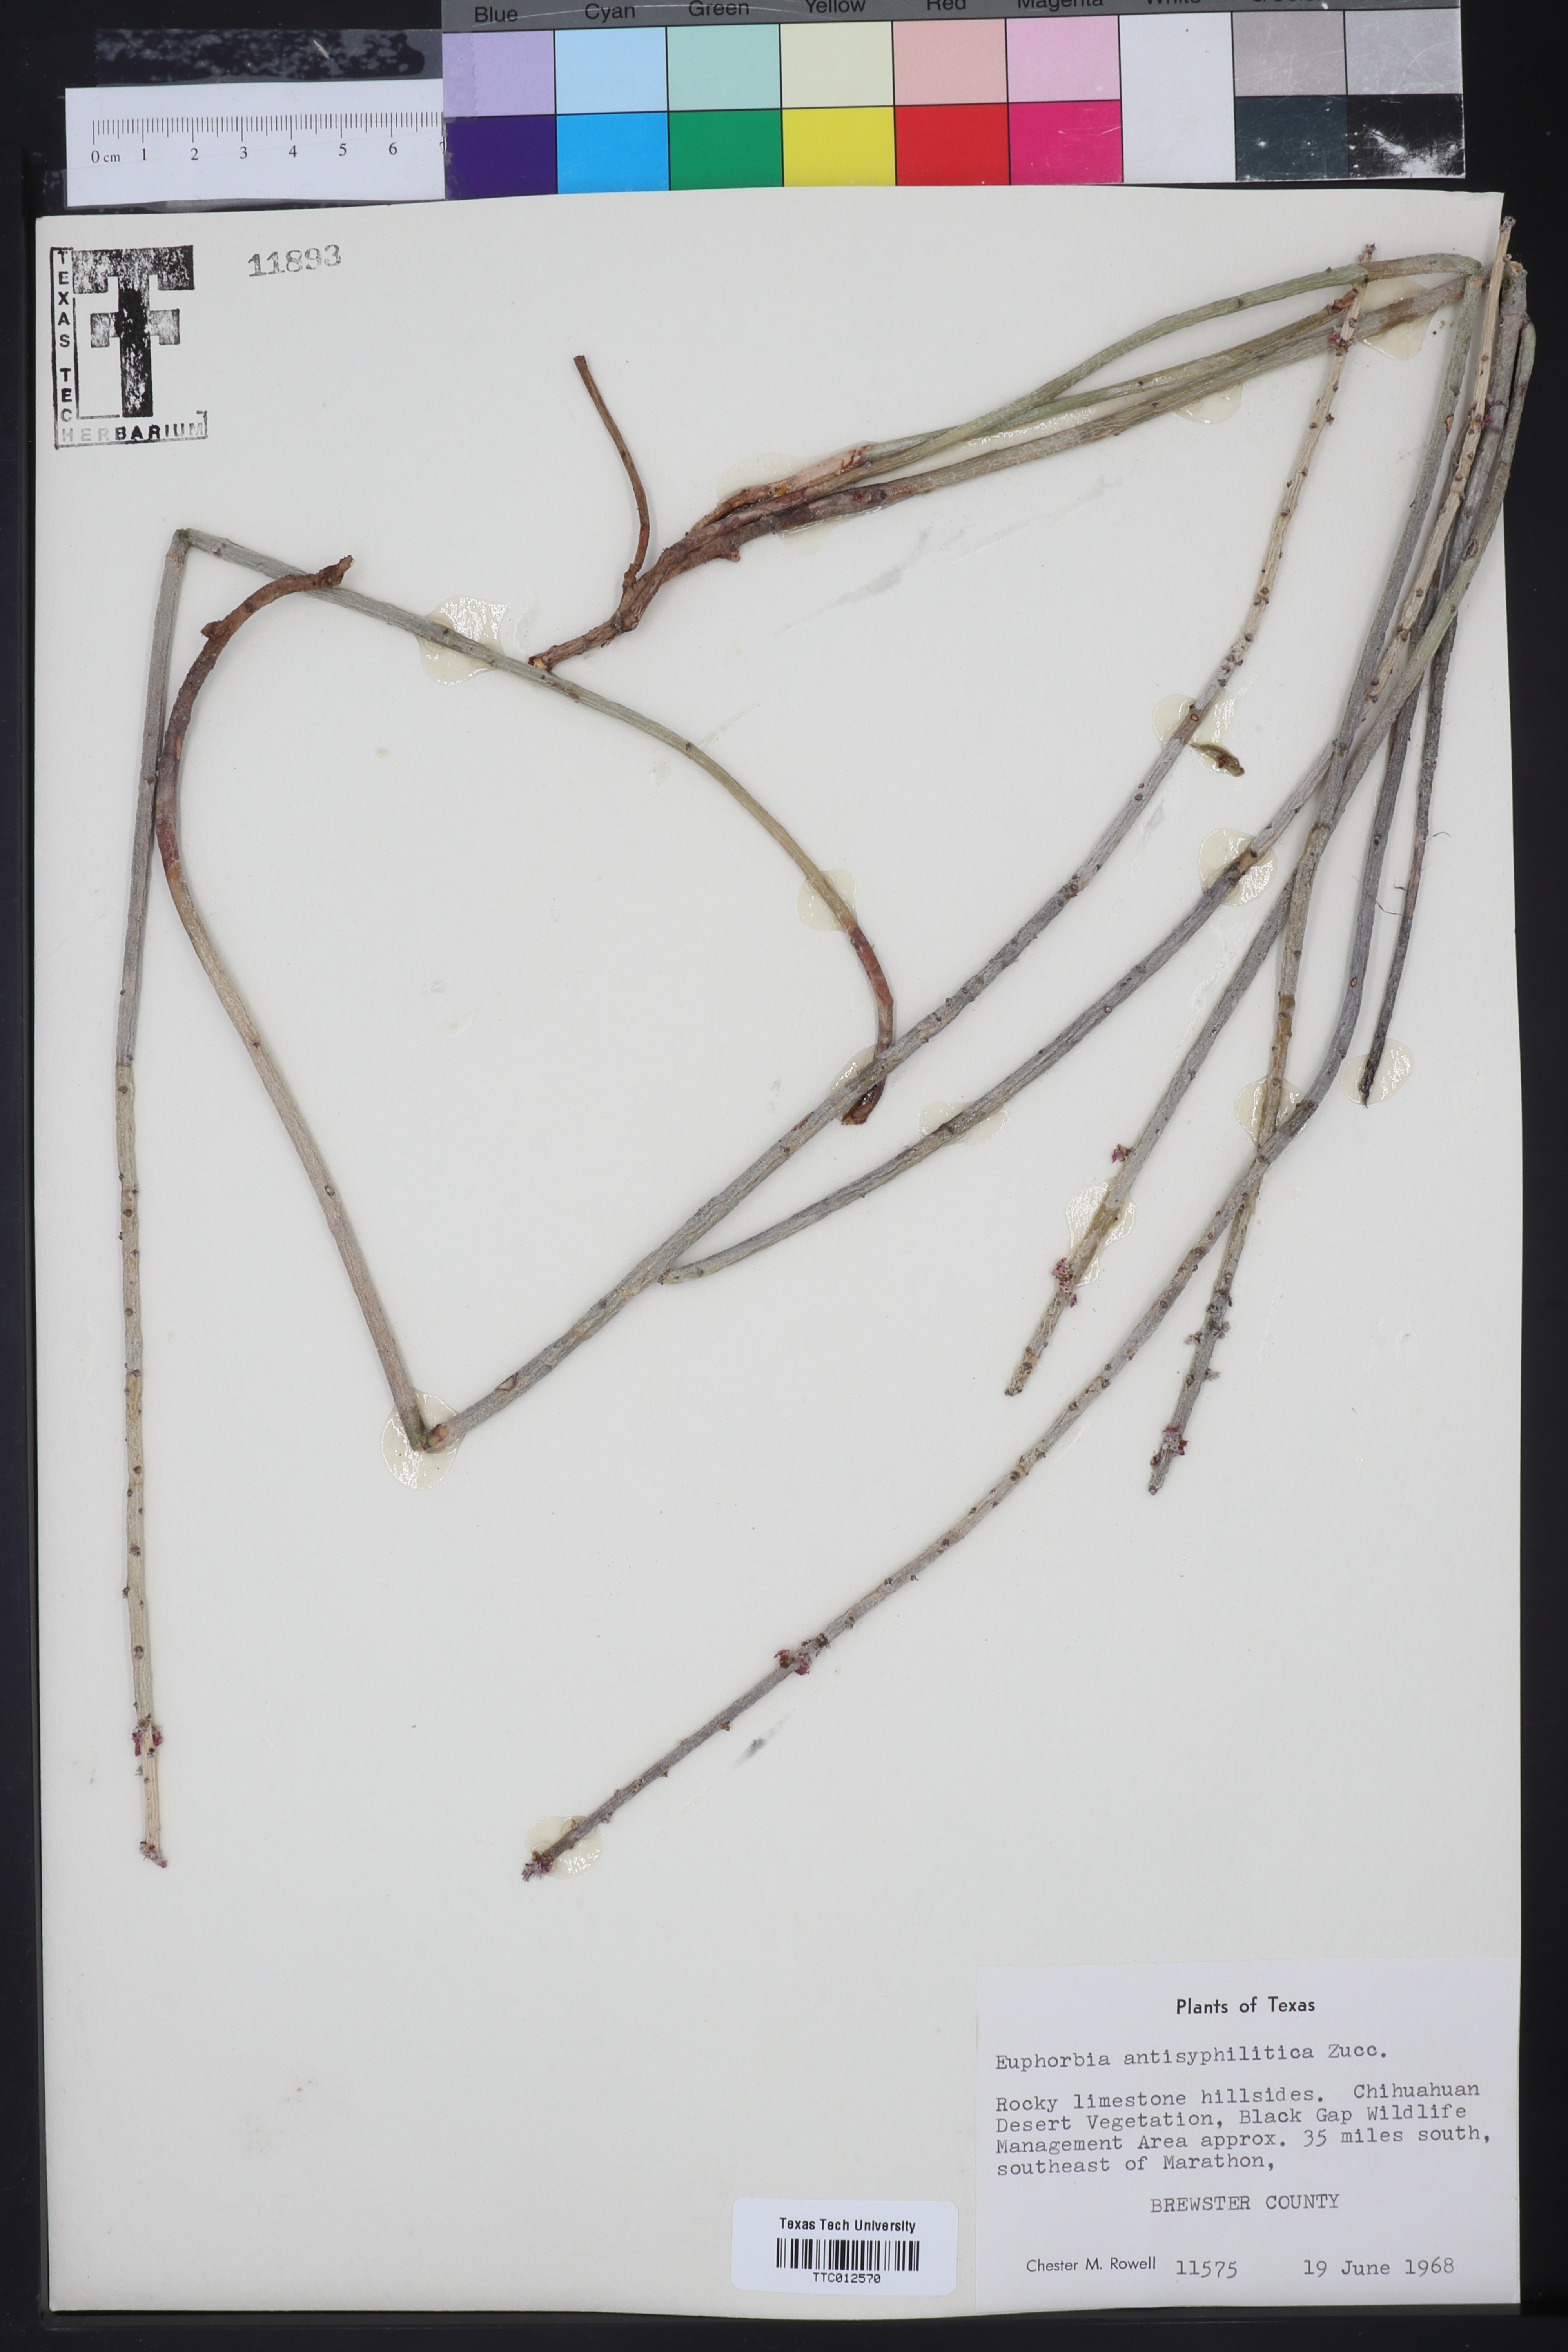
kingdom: Plantae
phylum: Tracheophyta
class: Magnoliopsida
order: Malpighiales
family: Euphorbiaceae
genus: Euphorbia
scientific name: Euphorbia antisyphilitica
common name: Candelilla
